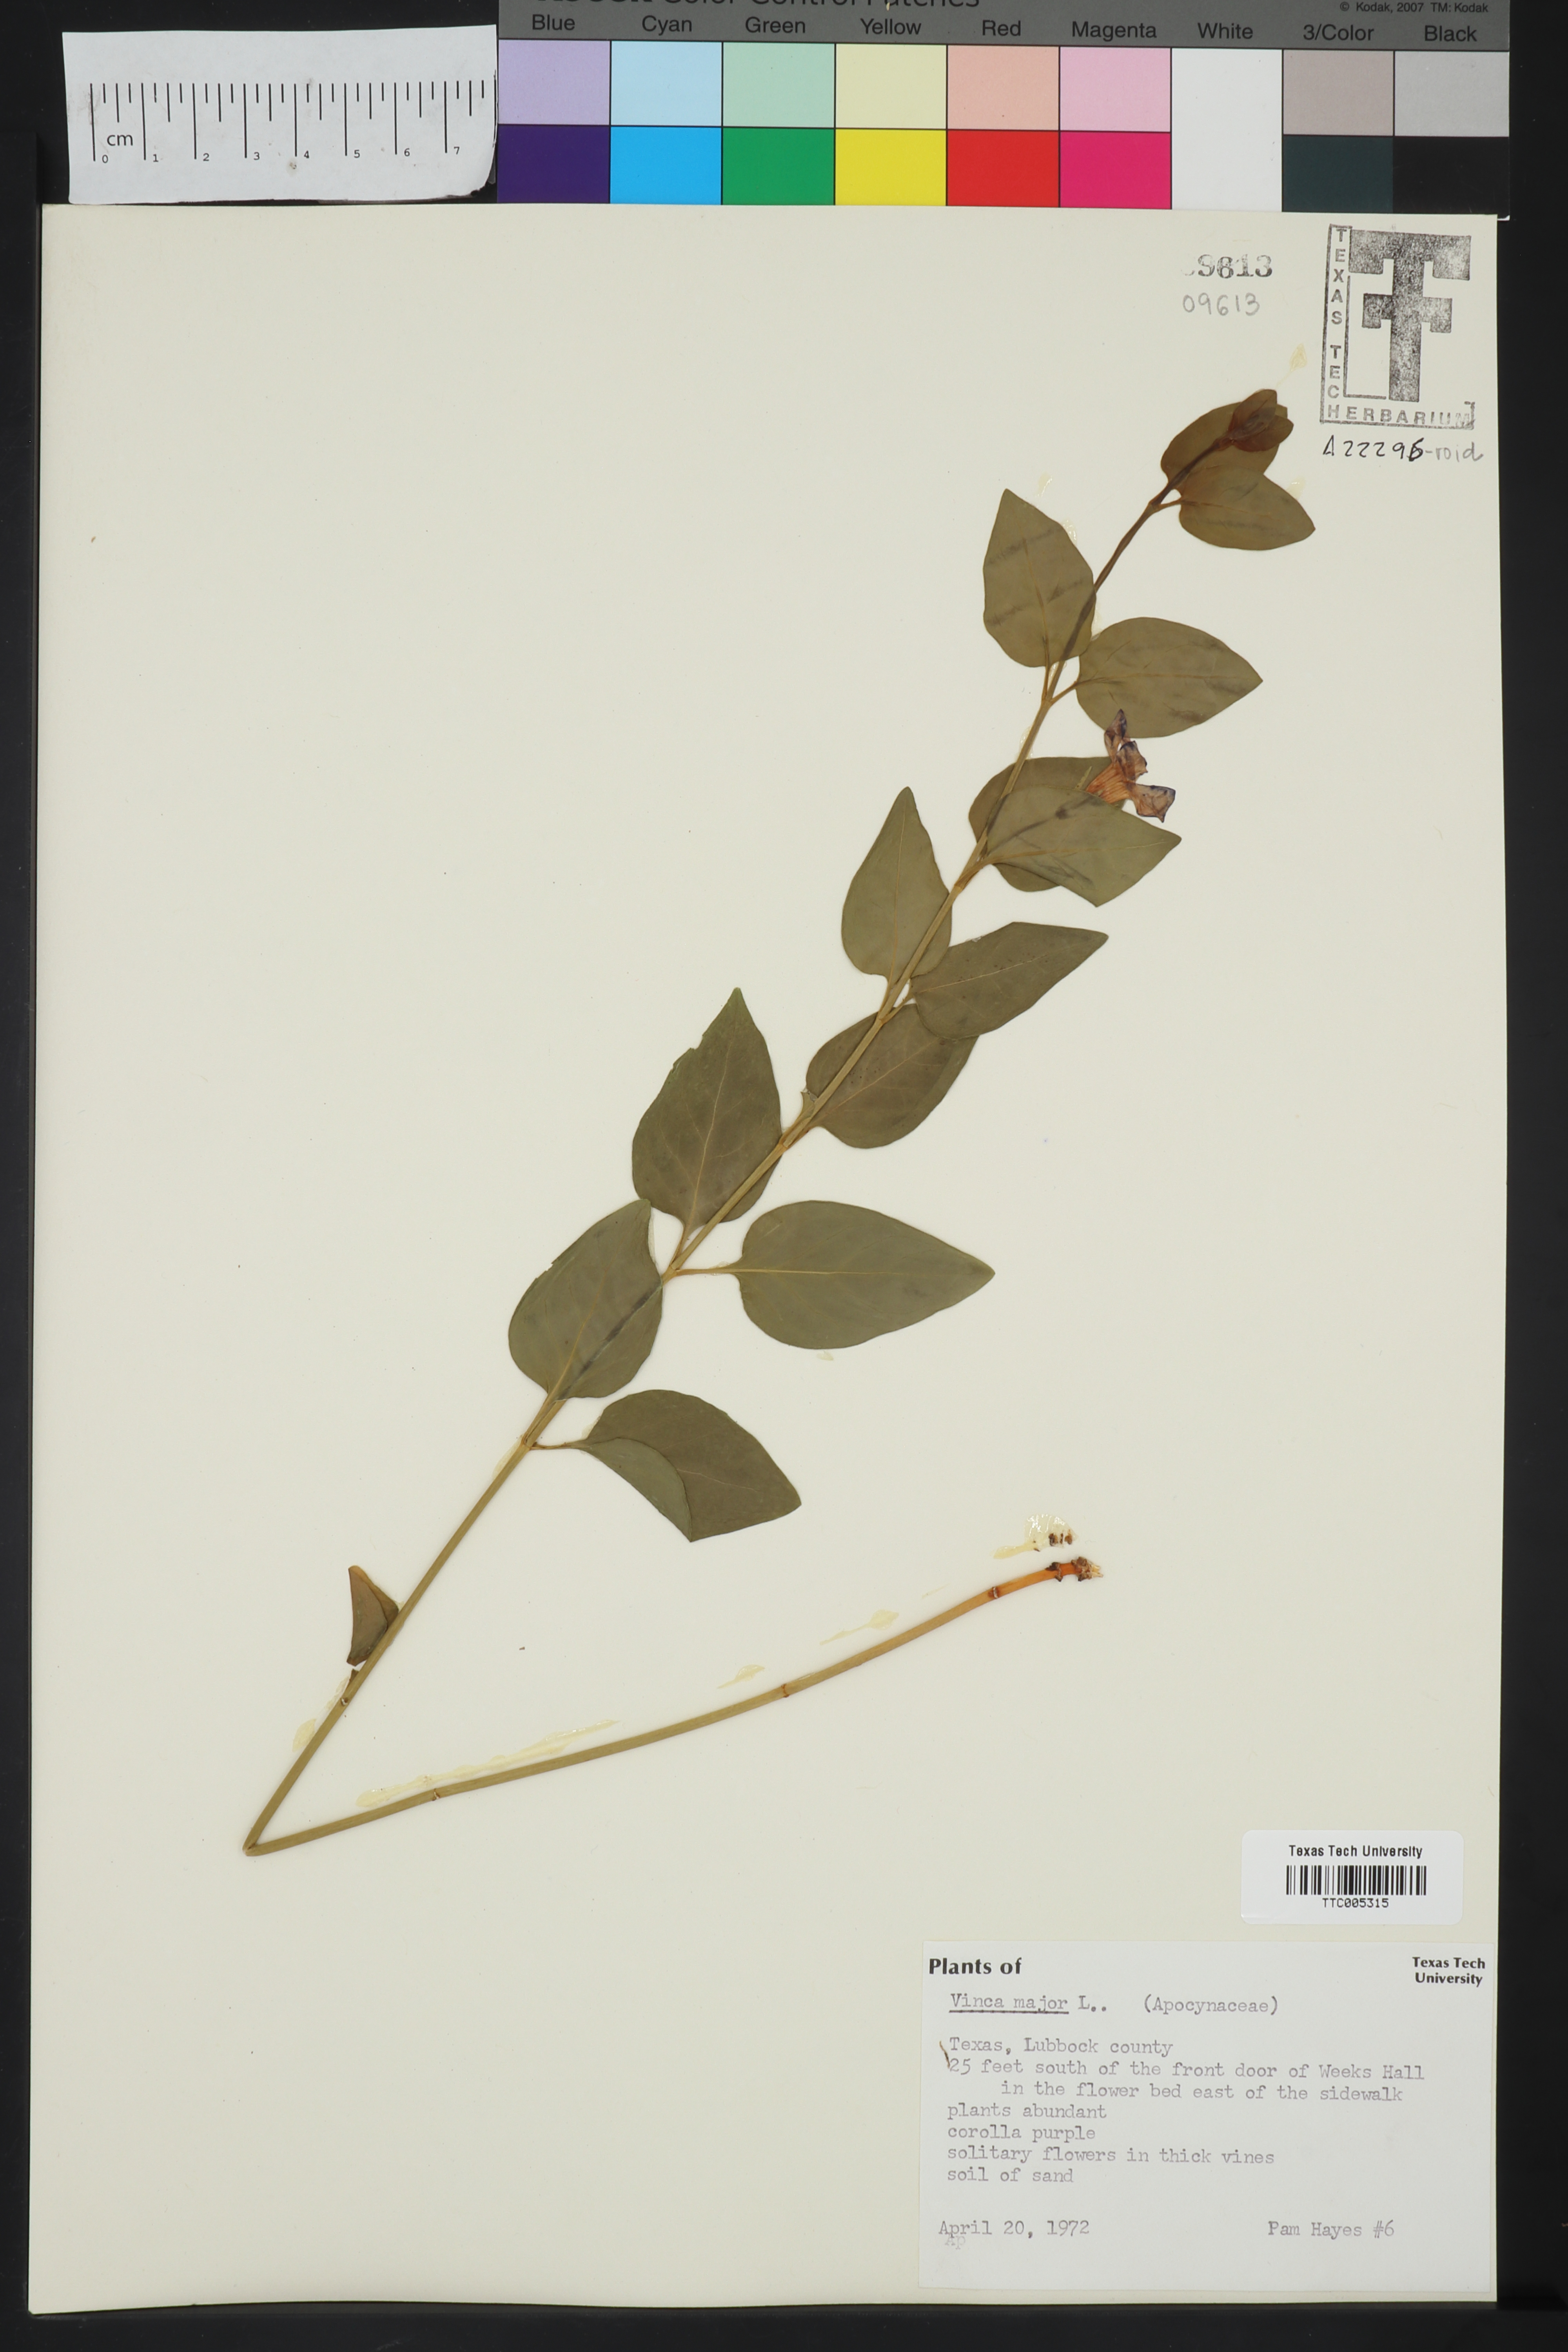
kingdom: Plantae
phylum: Tracheophyta
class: Magnoliopsida
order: Gentianales
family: Apocynaceae
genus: Vinca
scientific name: Vinca major
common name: Greater periwinkle
